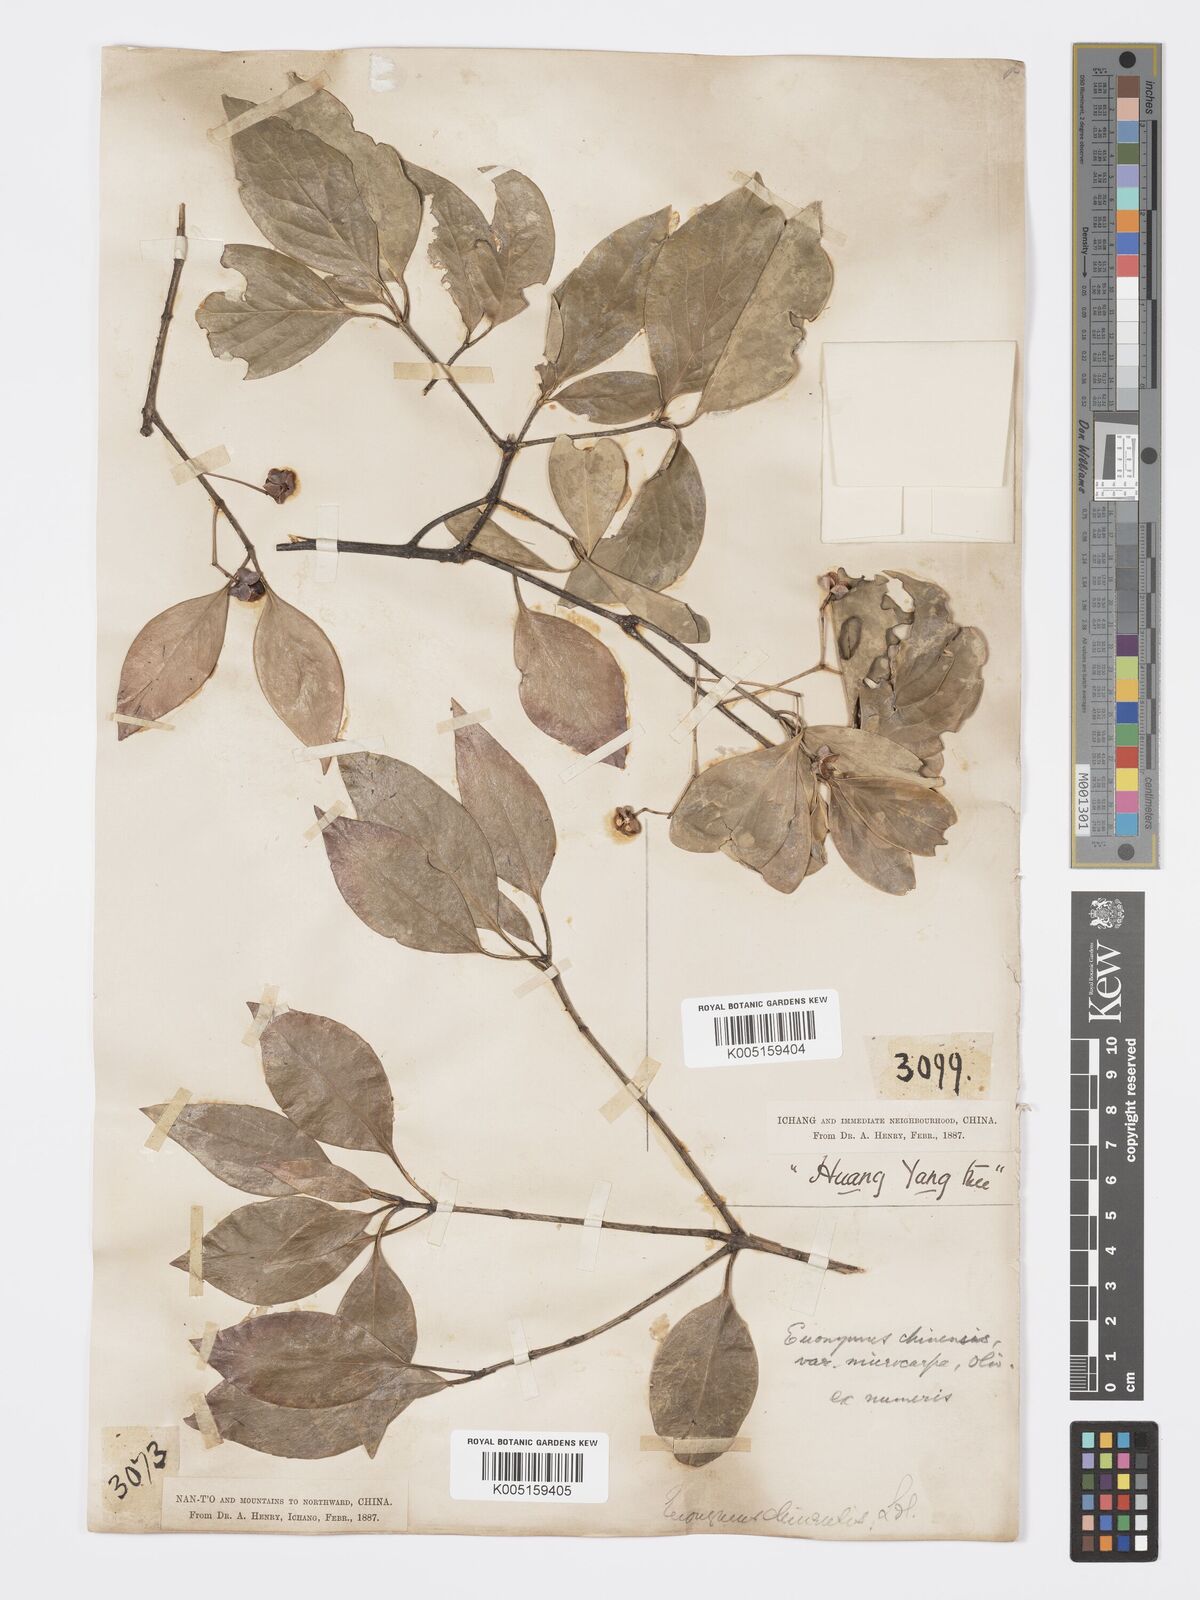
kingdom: Plantae
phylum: Tracheophyta
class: Magnoliopsida
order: Celastrales
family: Celastraceae
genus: Euonymus
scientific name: Euonymus
